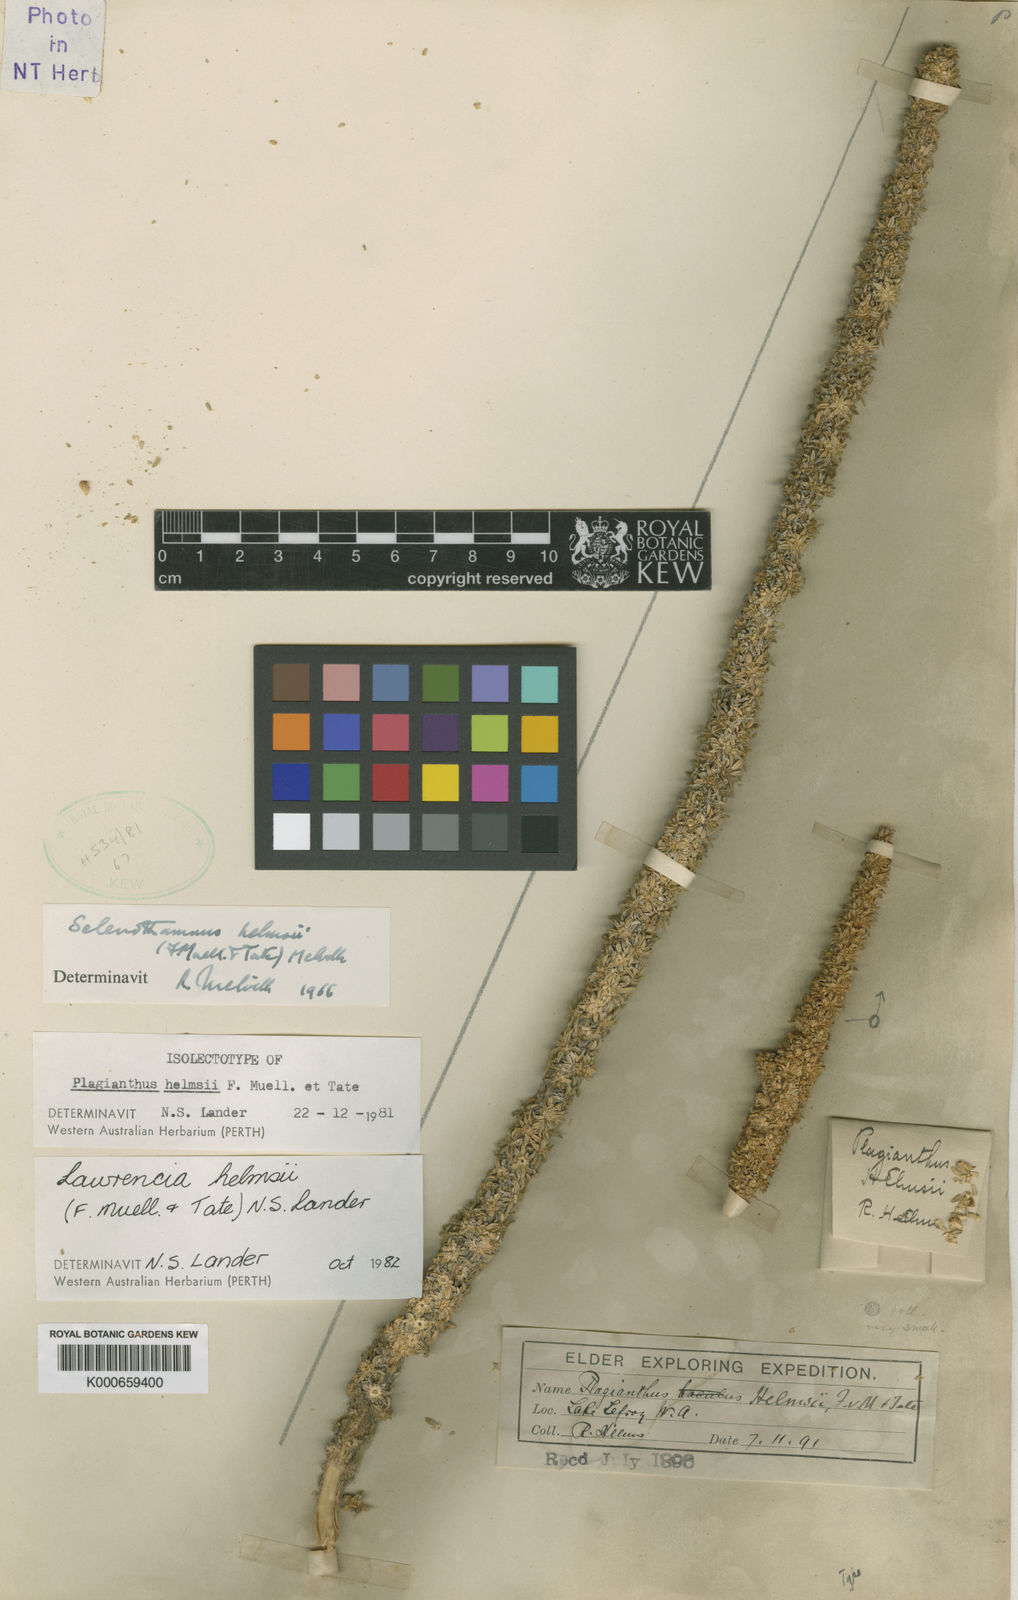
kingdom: Plantae
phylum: Tracheophyta
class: Magnoliopsida
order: Malvales
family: Malvaceae
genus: Lawrencia
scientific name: Lawrencia helmsii
